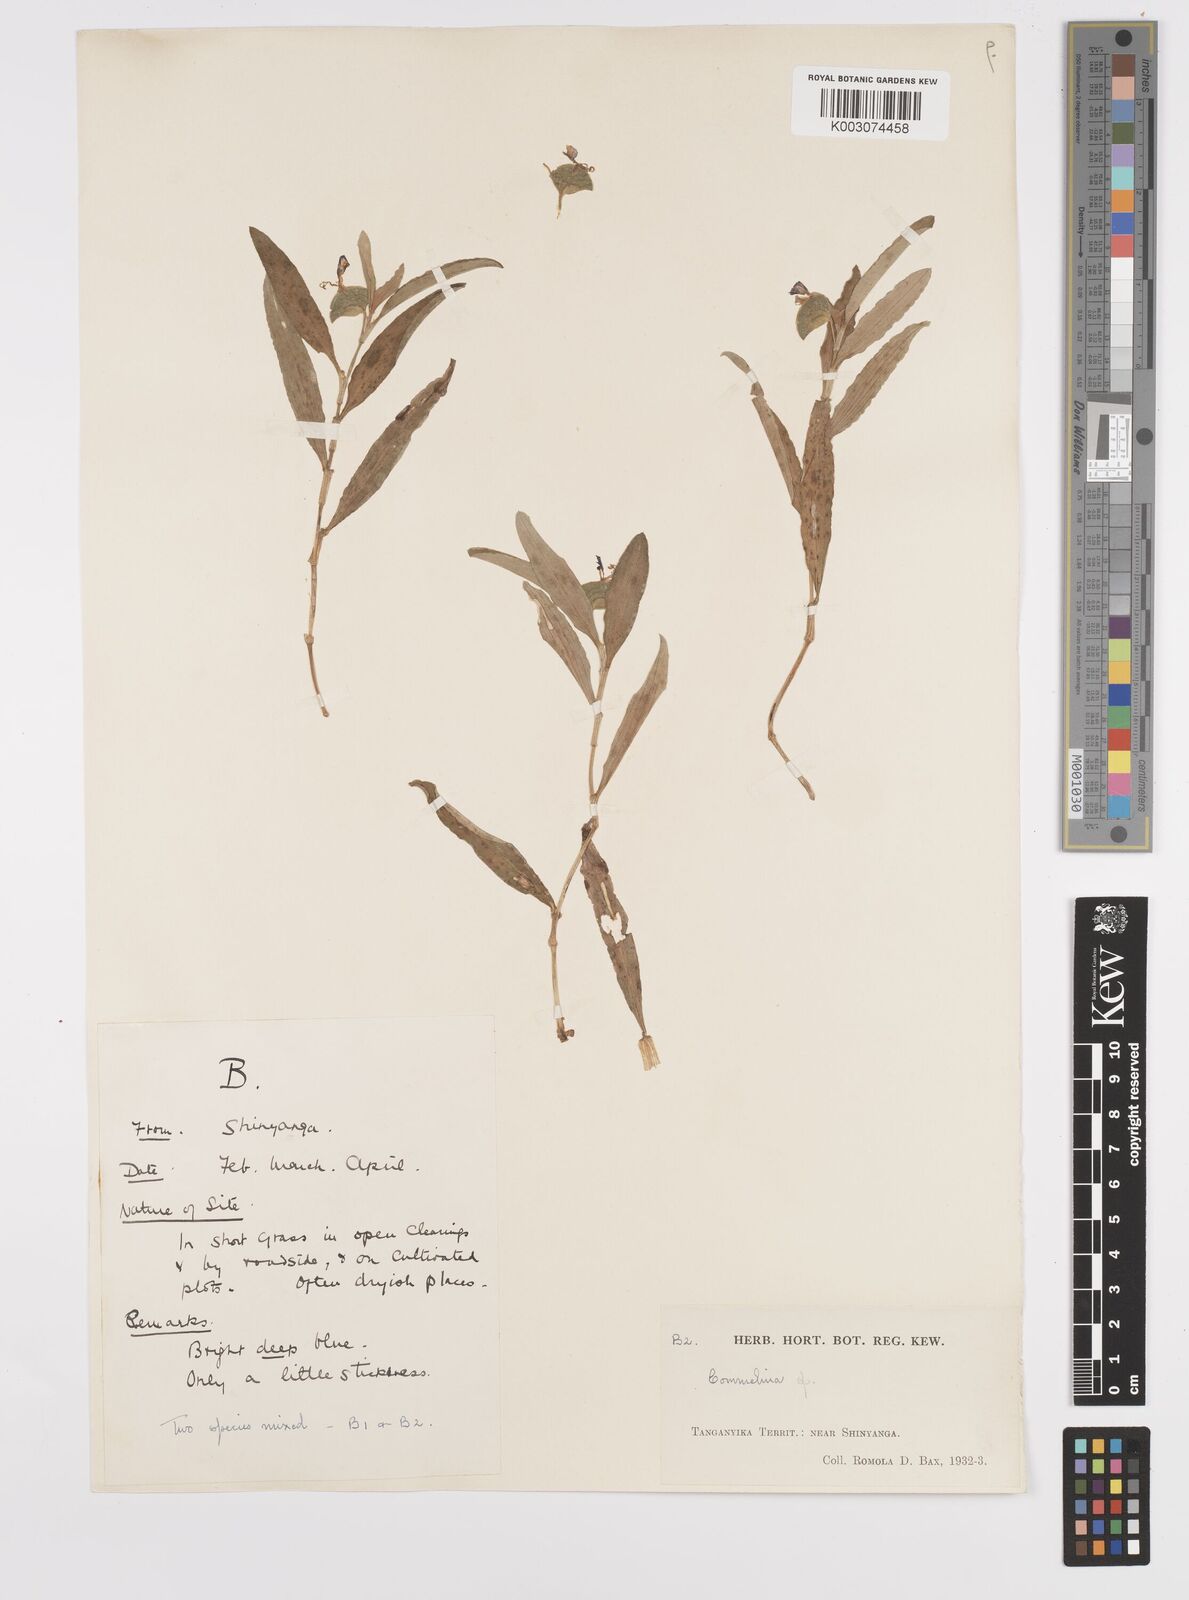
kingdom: Plantae
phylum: Tracheophyta
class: Liliopsida
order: Commelinales
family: Commelinaceae
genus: Commelina
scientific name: Commelina
